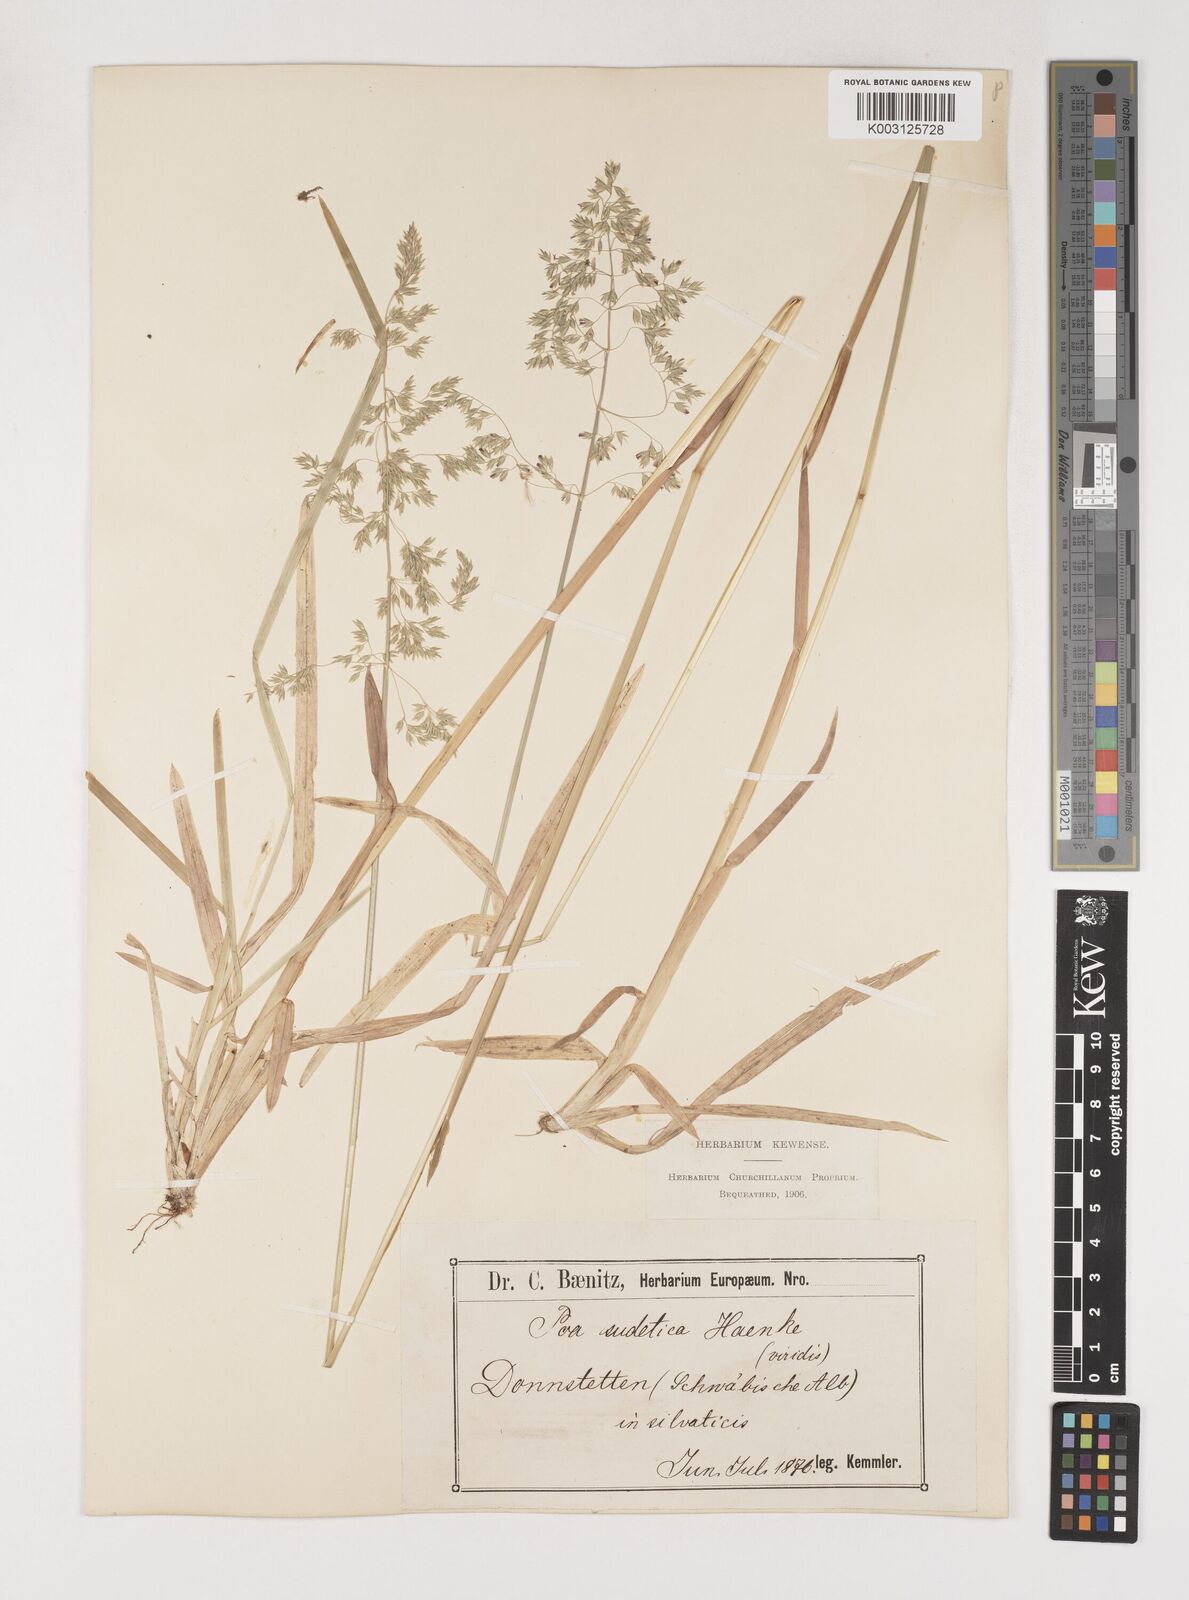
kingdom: Plantae
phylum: Tracheophyta
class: Liliopsida
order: Poales
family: Poaceae
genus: Poa
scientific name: Poa chaixii
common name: Broad-leaved meadow-grass
